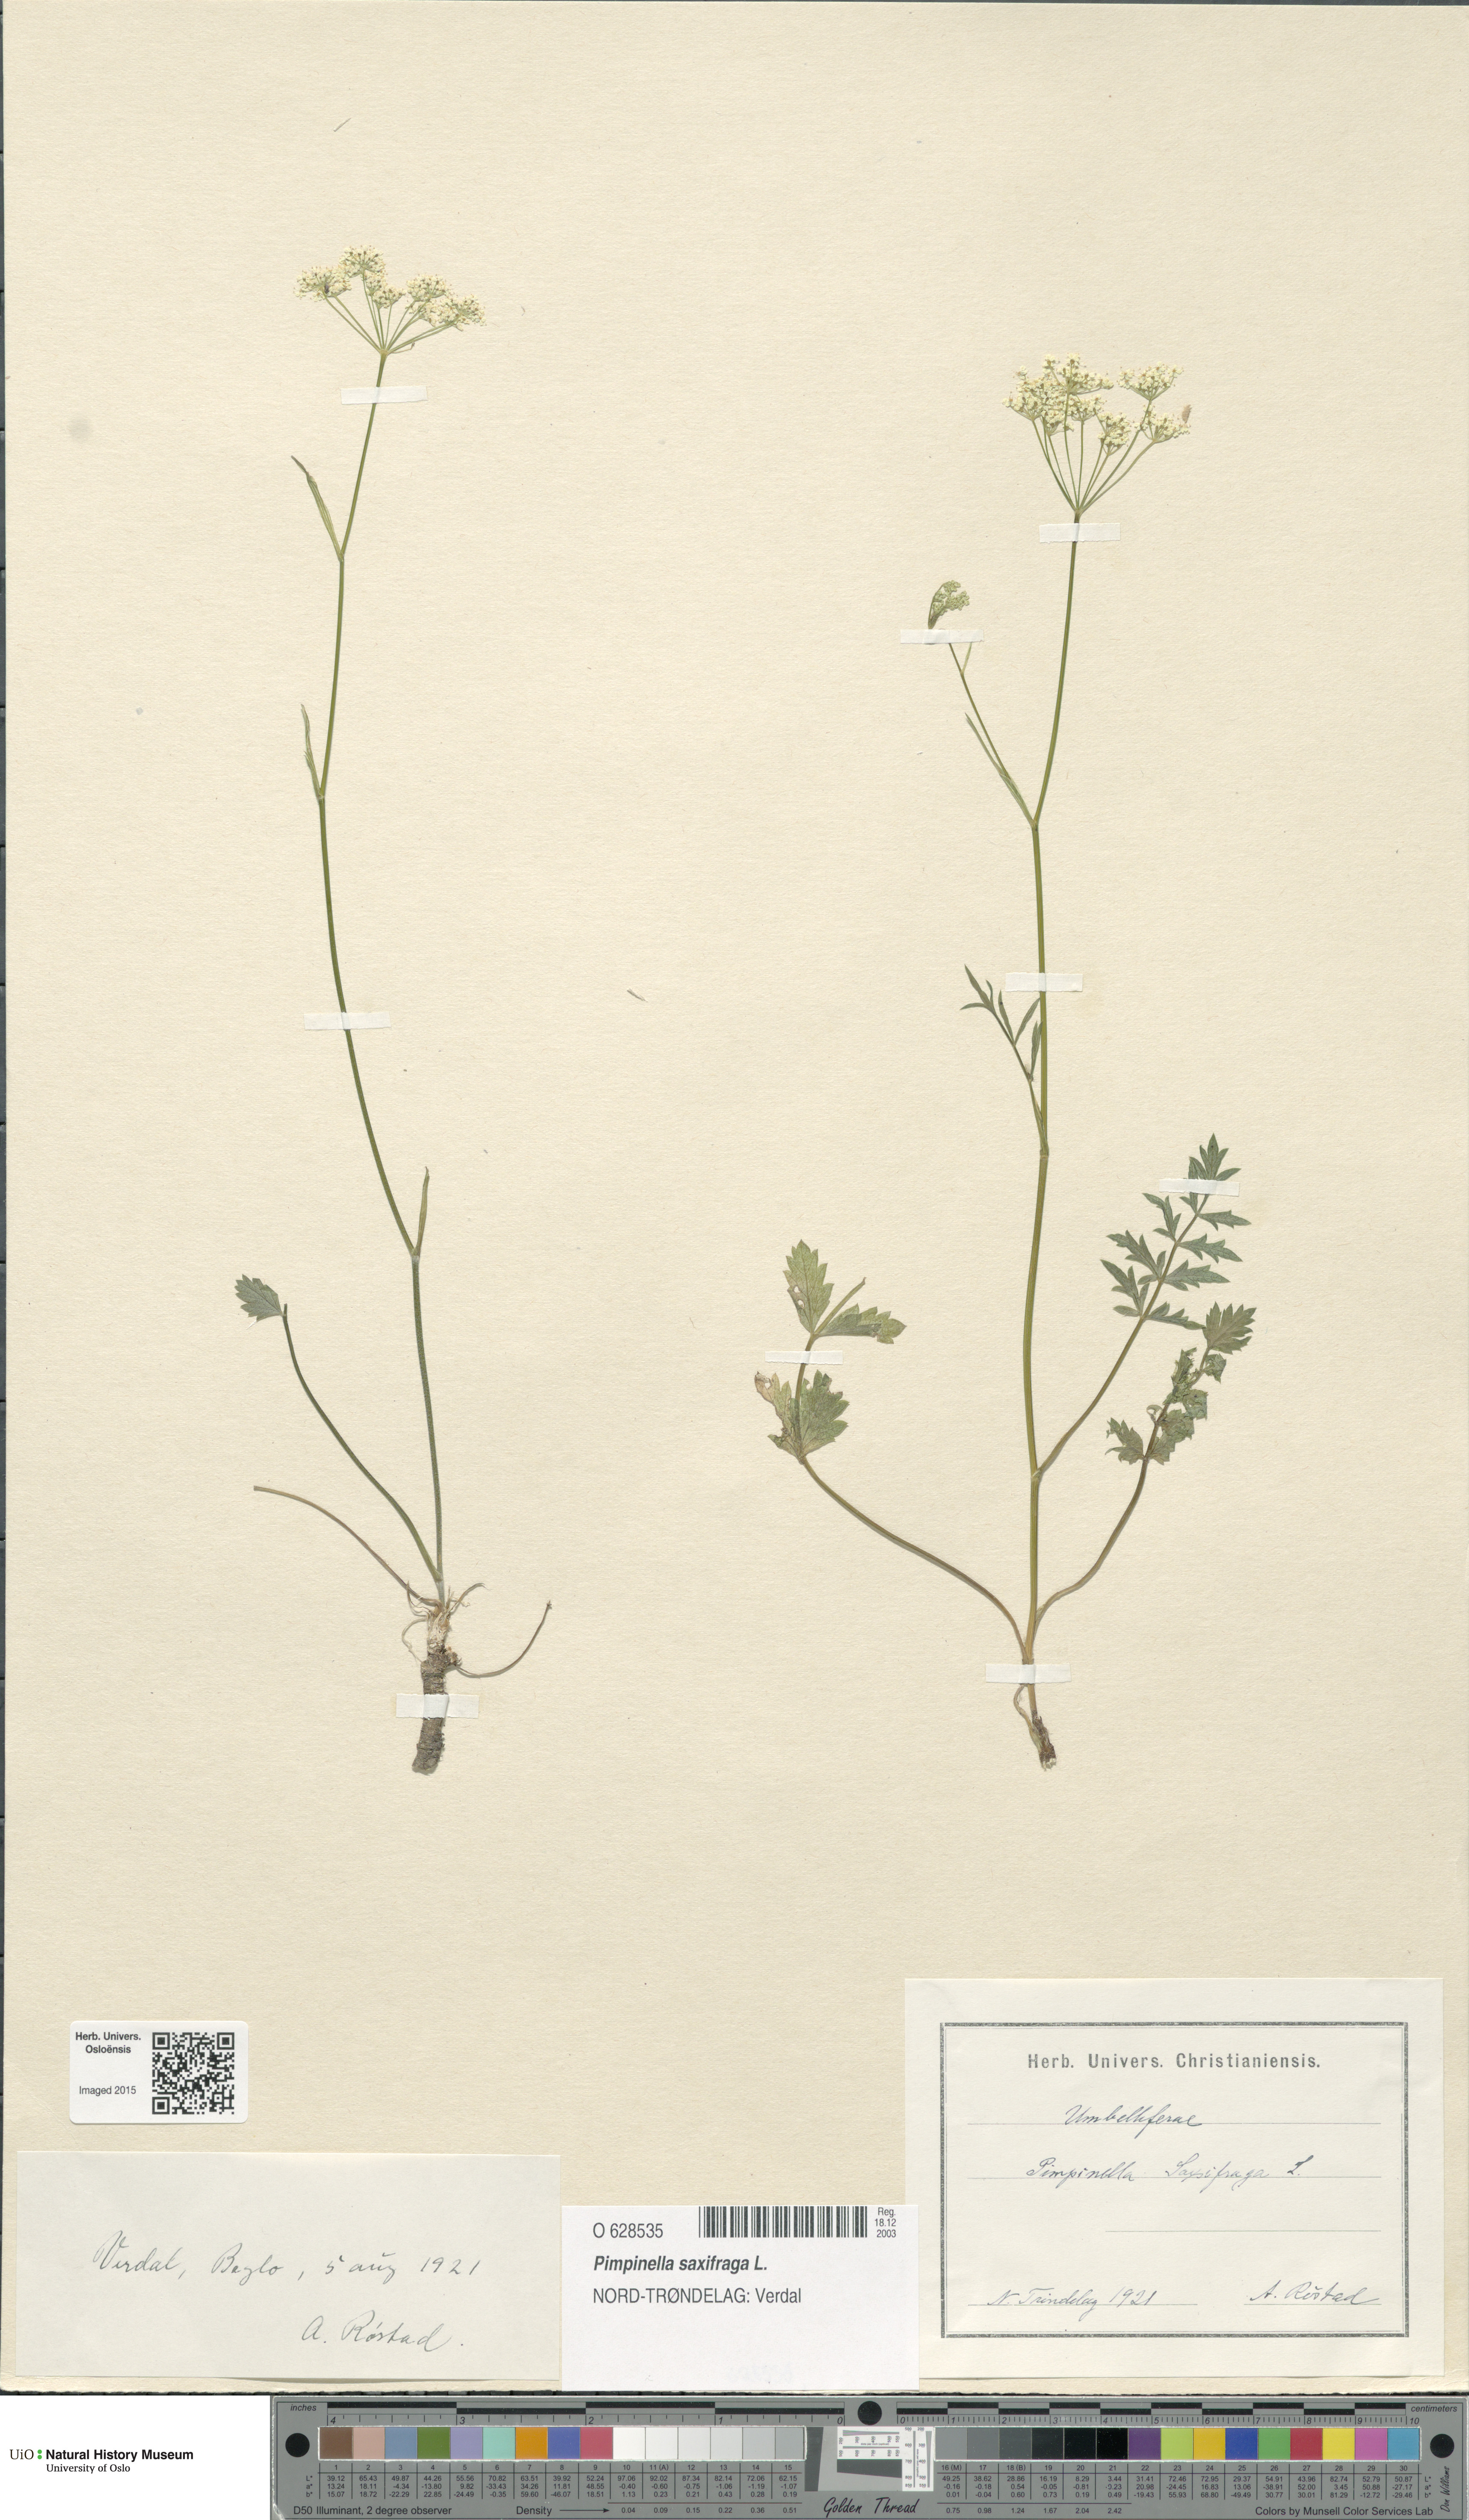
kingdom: Plantae
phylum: Tracheophyta
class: Magnoliopsida
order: Apiales
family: Apiaceae
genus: Pimpinella
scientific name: Pimpinella saxifraga
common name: Burnet-saxifrage
